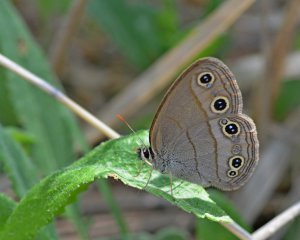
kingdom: Animalia
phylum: Arthropoda
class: Insecta
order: Lepidoptera
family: Nymphalidae
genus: Euptychia
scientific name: Euptychia cymela
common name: Little Wood Satyr
